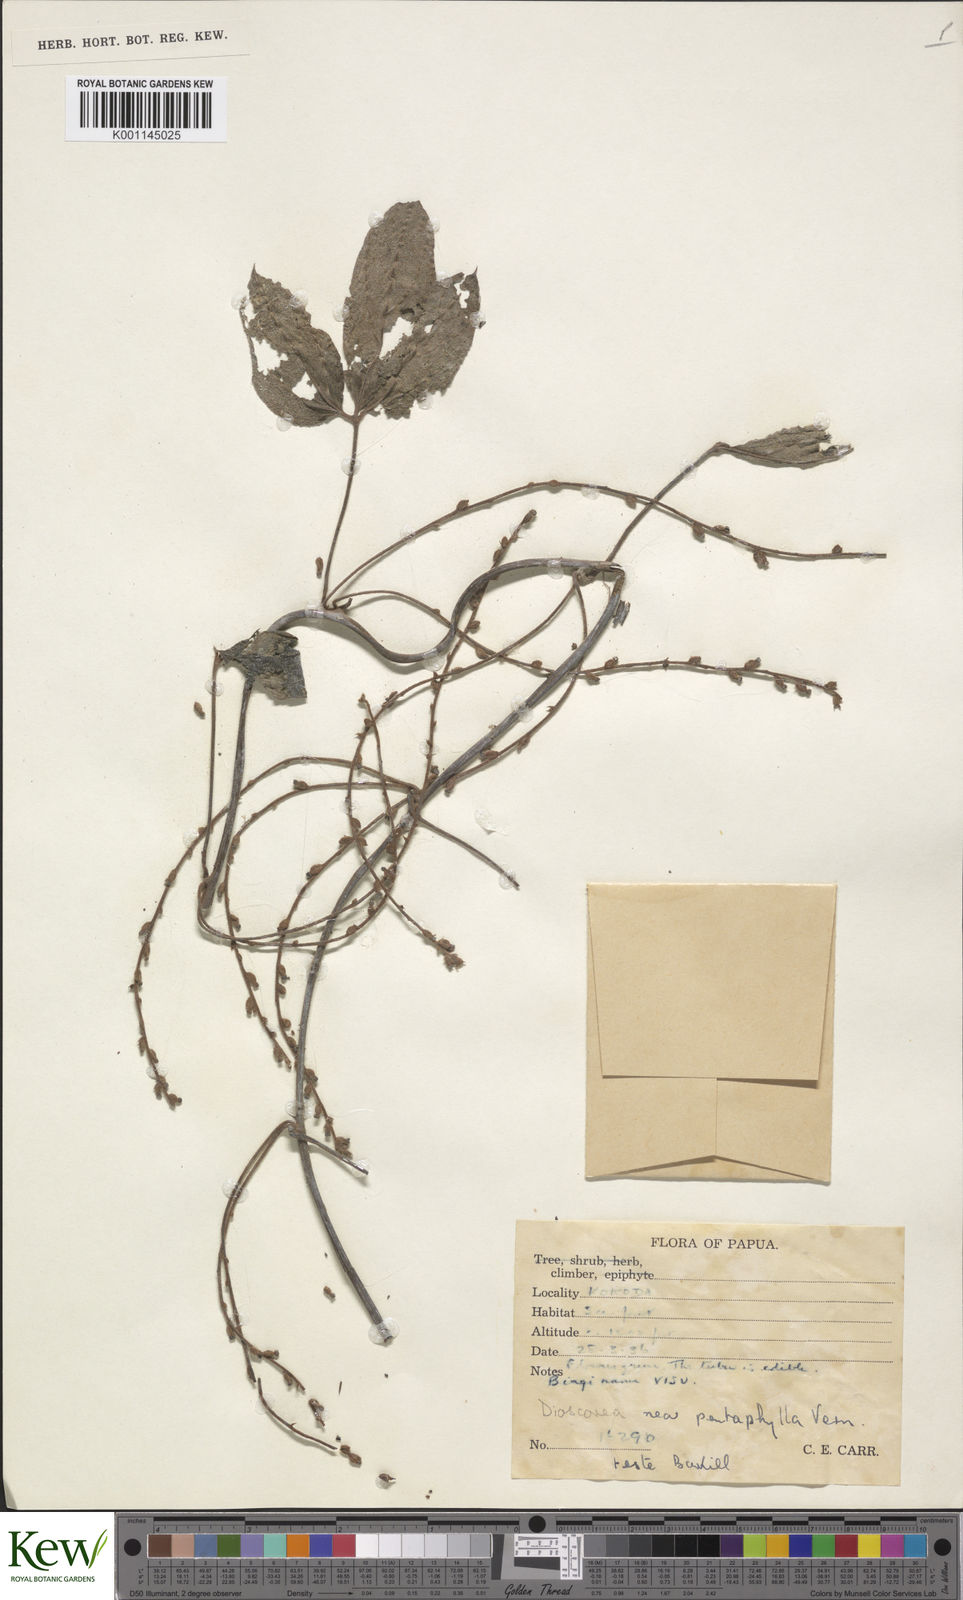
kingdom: Plantae
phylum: Tracheophyta
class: Liliopsida
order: Dioscoreales
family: Dioscoreaceae
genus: Dioscorea
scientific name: Dioscorea pentaphylla
